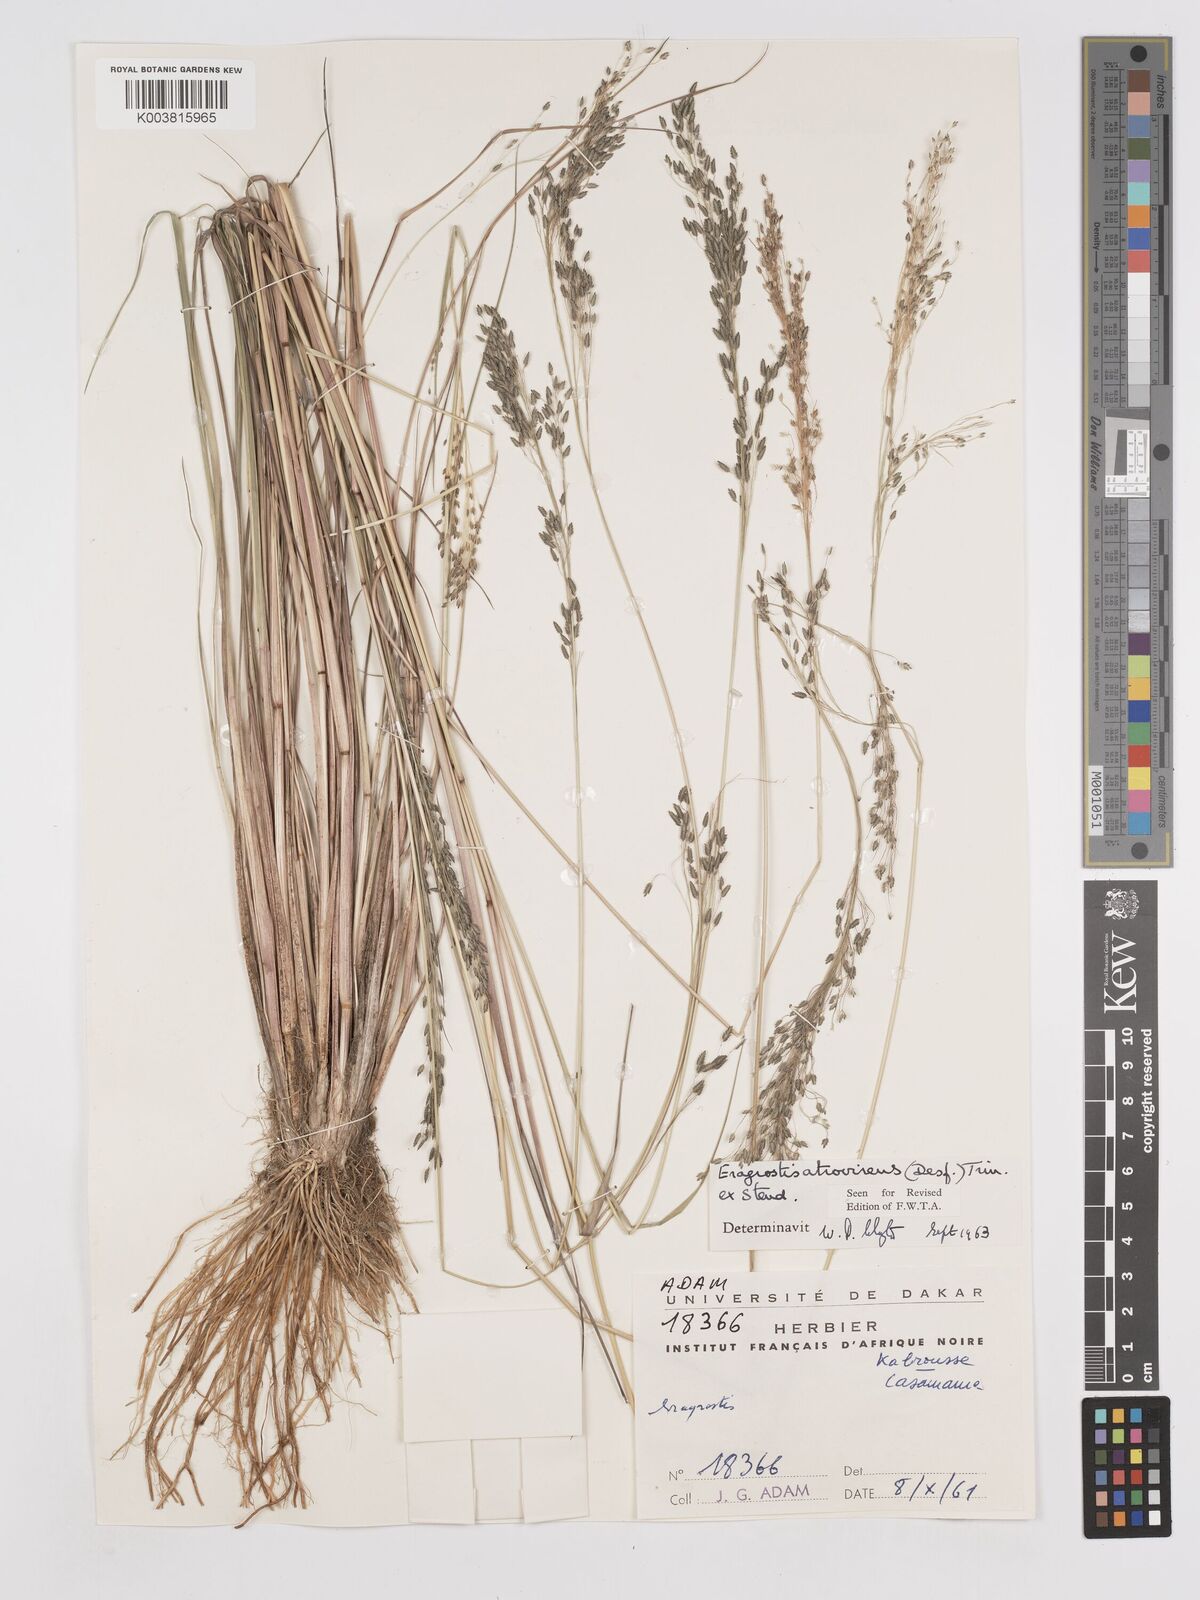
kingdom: Plantae
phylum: Tracheophyta
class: Liliopsida
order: Poales
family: Poaceae
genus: Eragrostis
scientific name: Eragrostis atrovirens
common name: Thalia lovegrass
